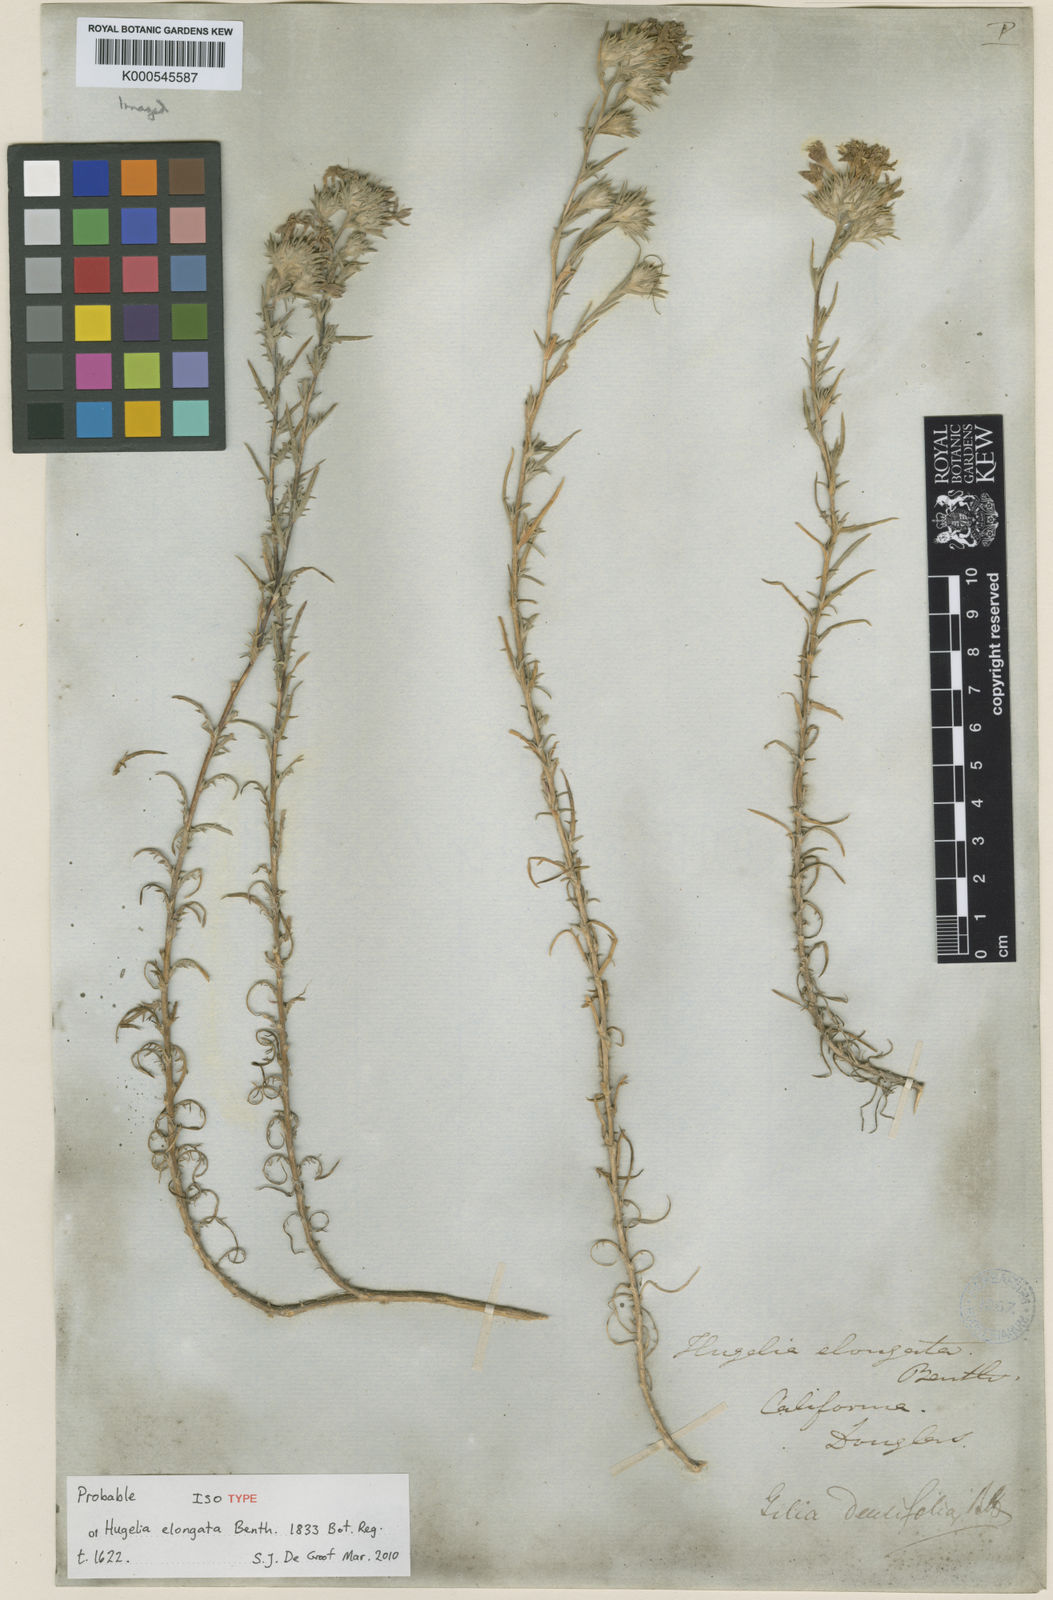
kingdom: Plantae
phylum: Tracheophyta
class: Magnoliopsida
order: Ericales
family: Polemoniaceae
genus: Eriastrum
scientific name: Eriastrum densifolium
